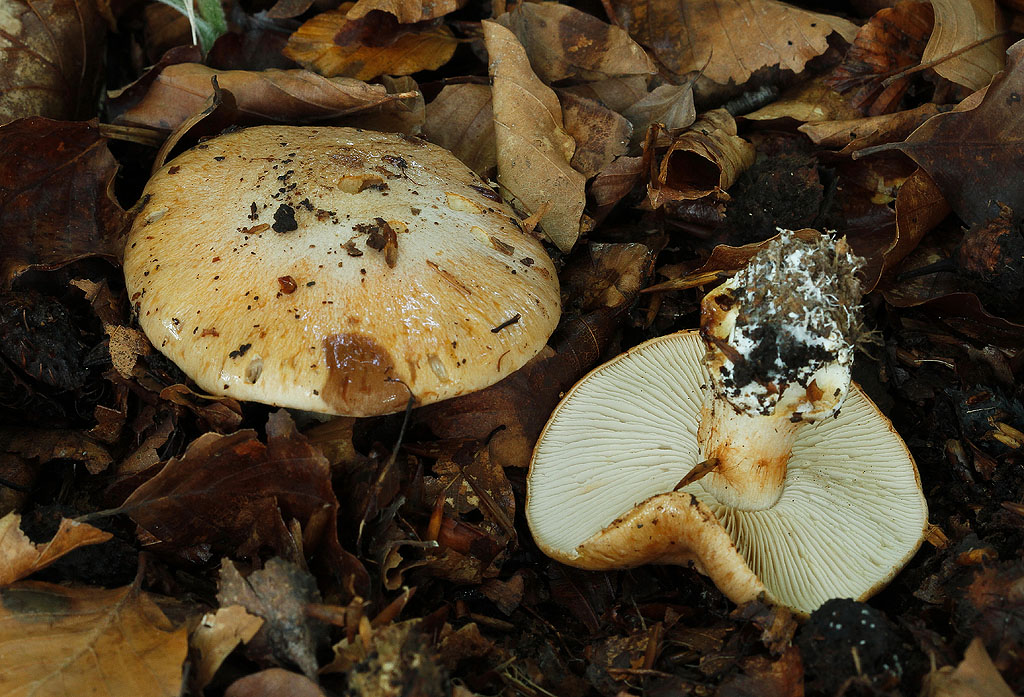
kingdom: Fungi
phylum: Basidiomycota
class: Agaricomycetes
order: Agaricales
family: Cortinariaceae
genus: Thaxterogaster
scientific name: Thaxterogaster talus
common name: knogle-slørhat
